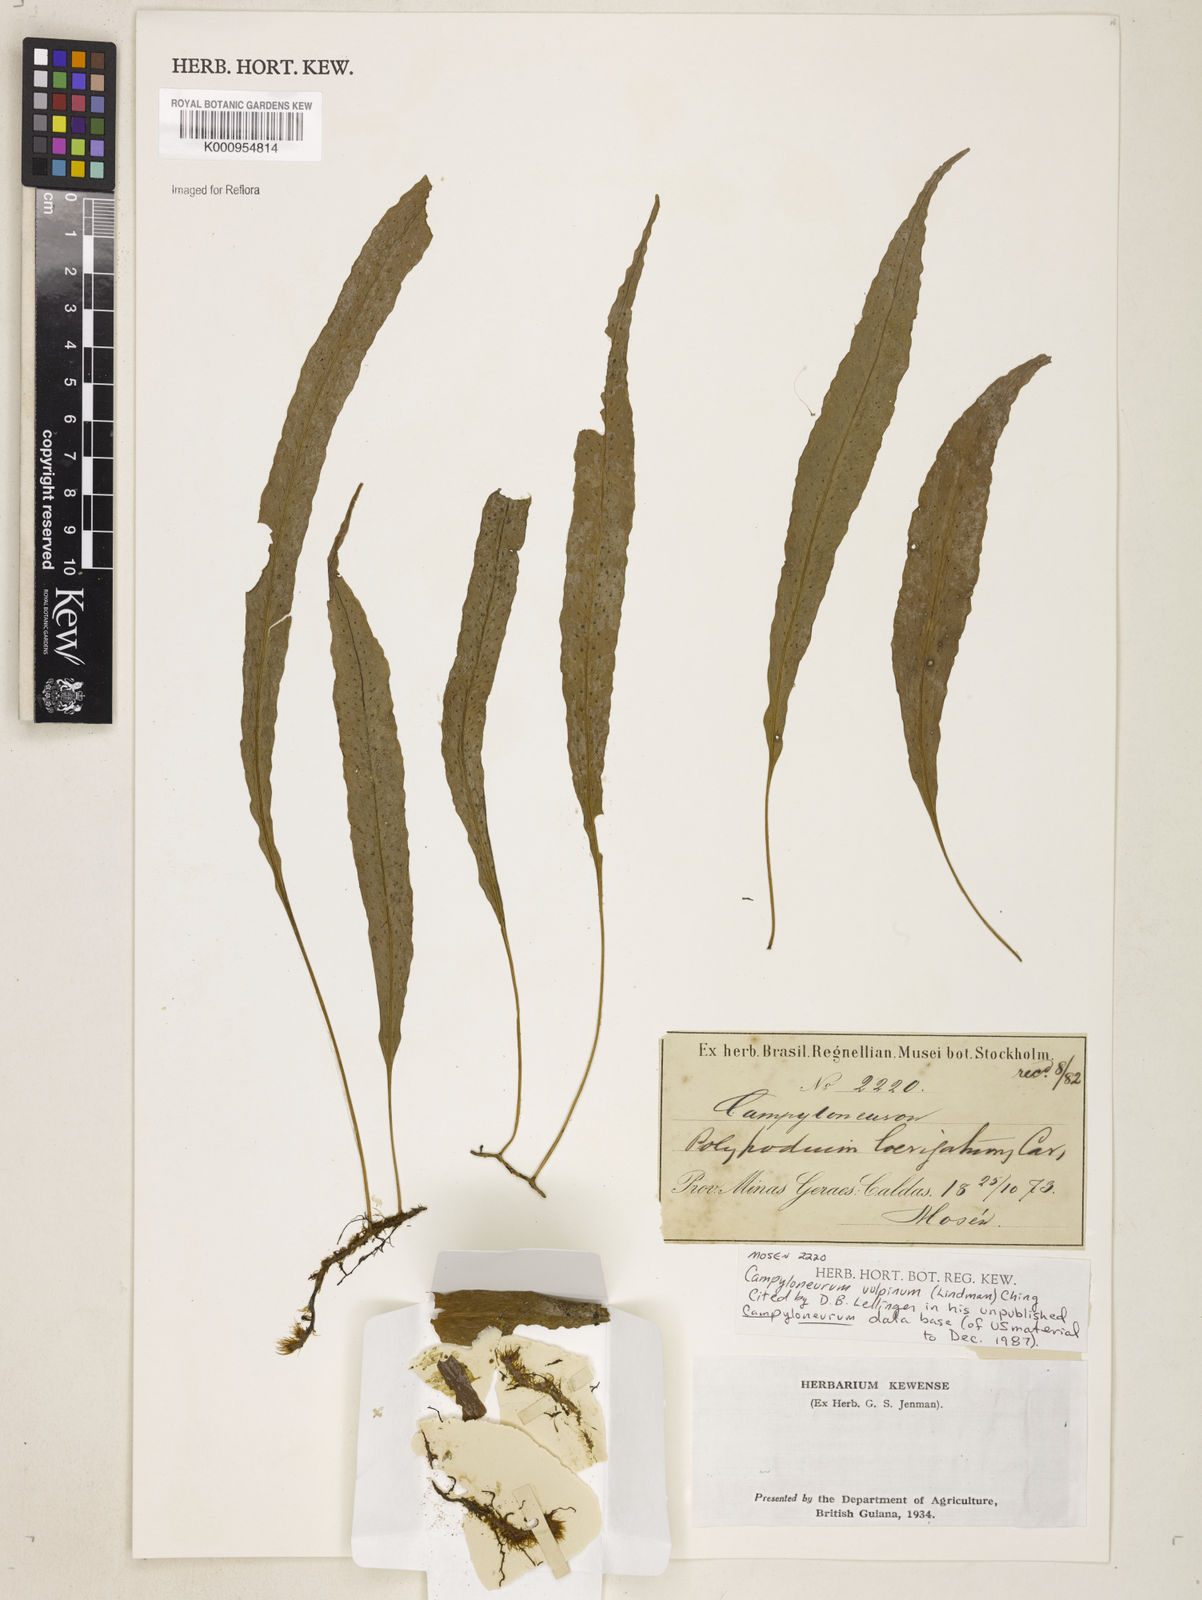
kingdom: Plantae
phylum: Tracheophyta
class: Polypodiopsida
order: Polypodiales
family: Polypodiaceae
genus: Campyloneurum
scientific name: Campyloneurum vulpinum
